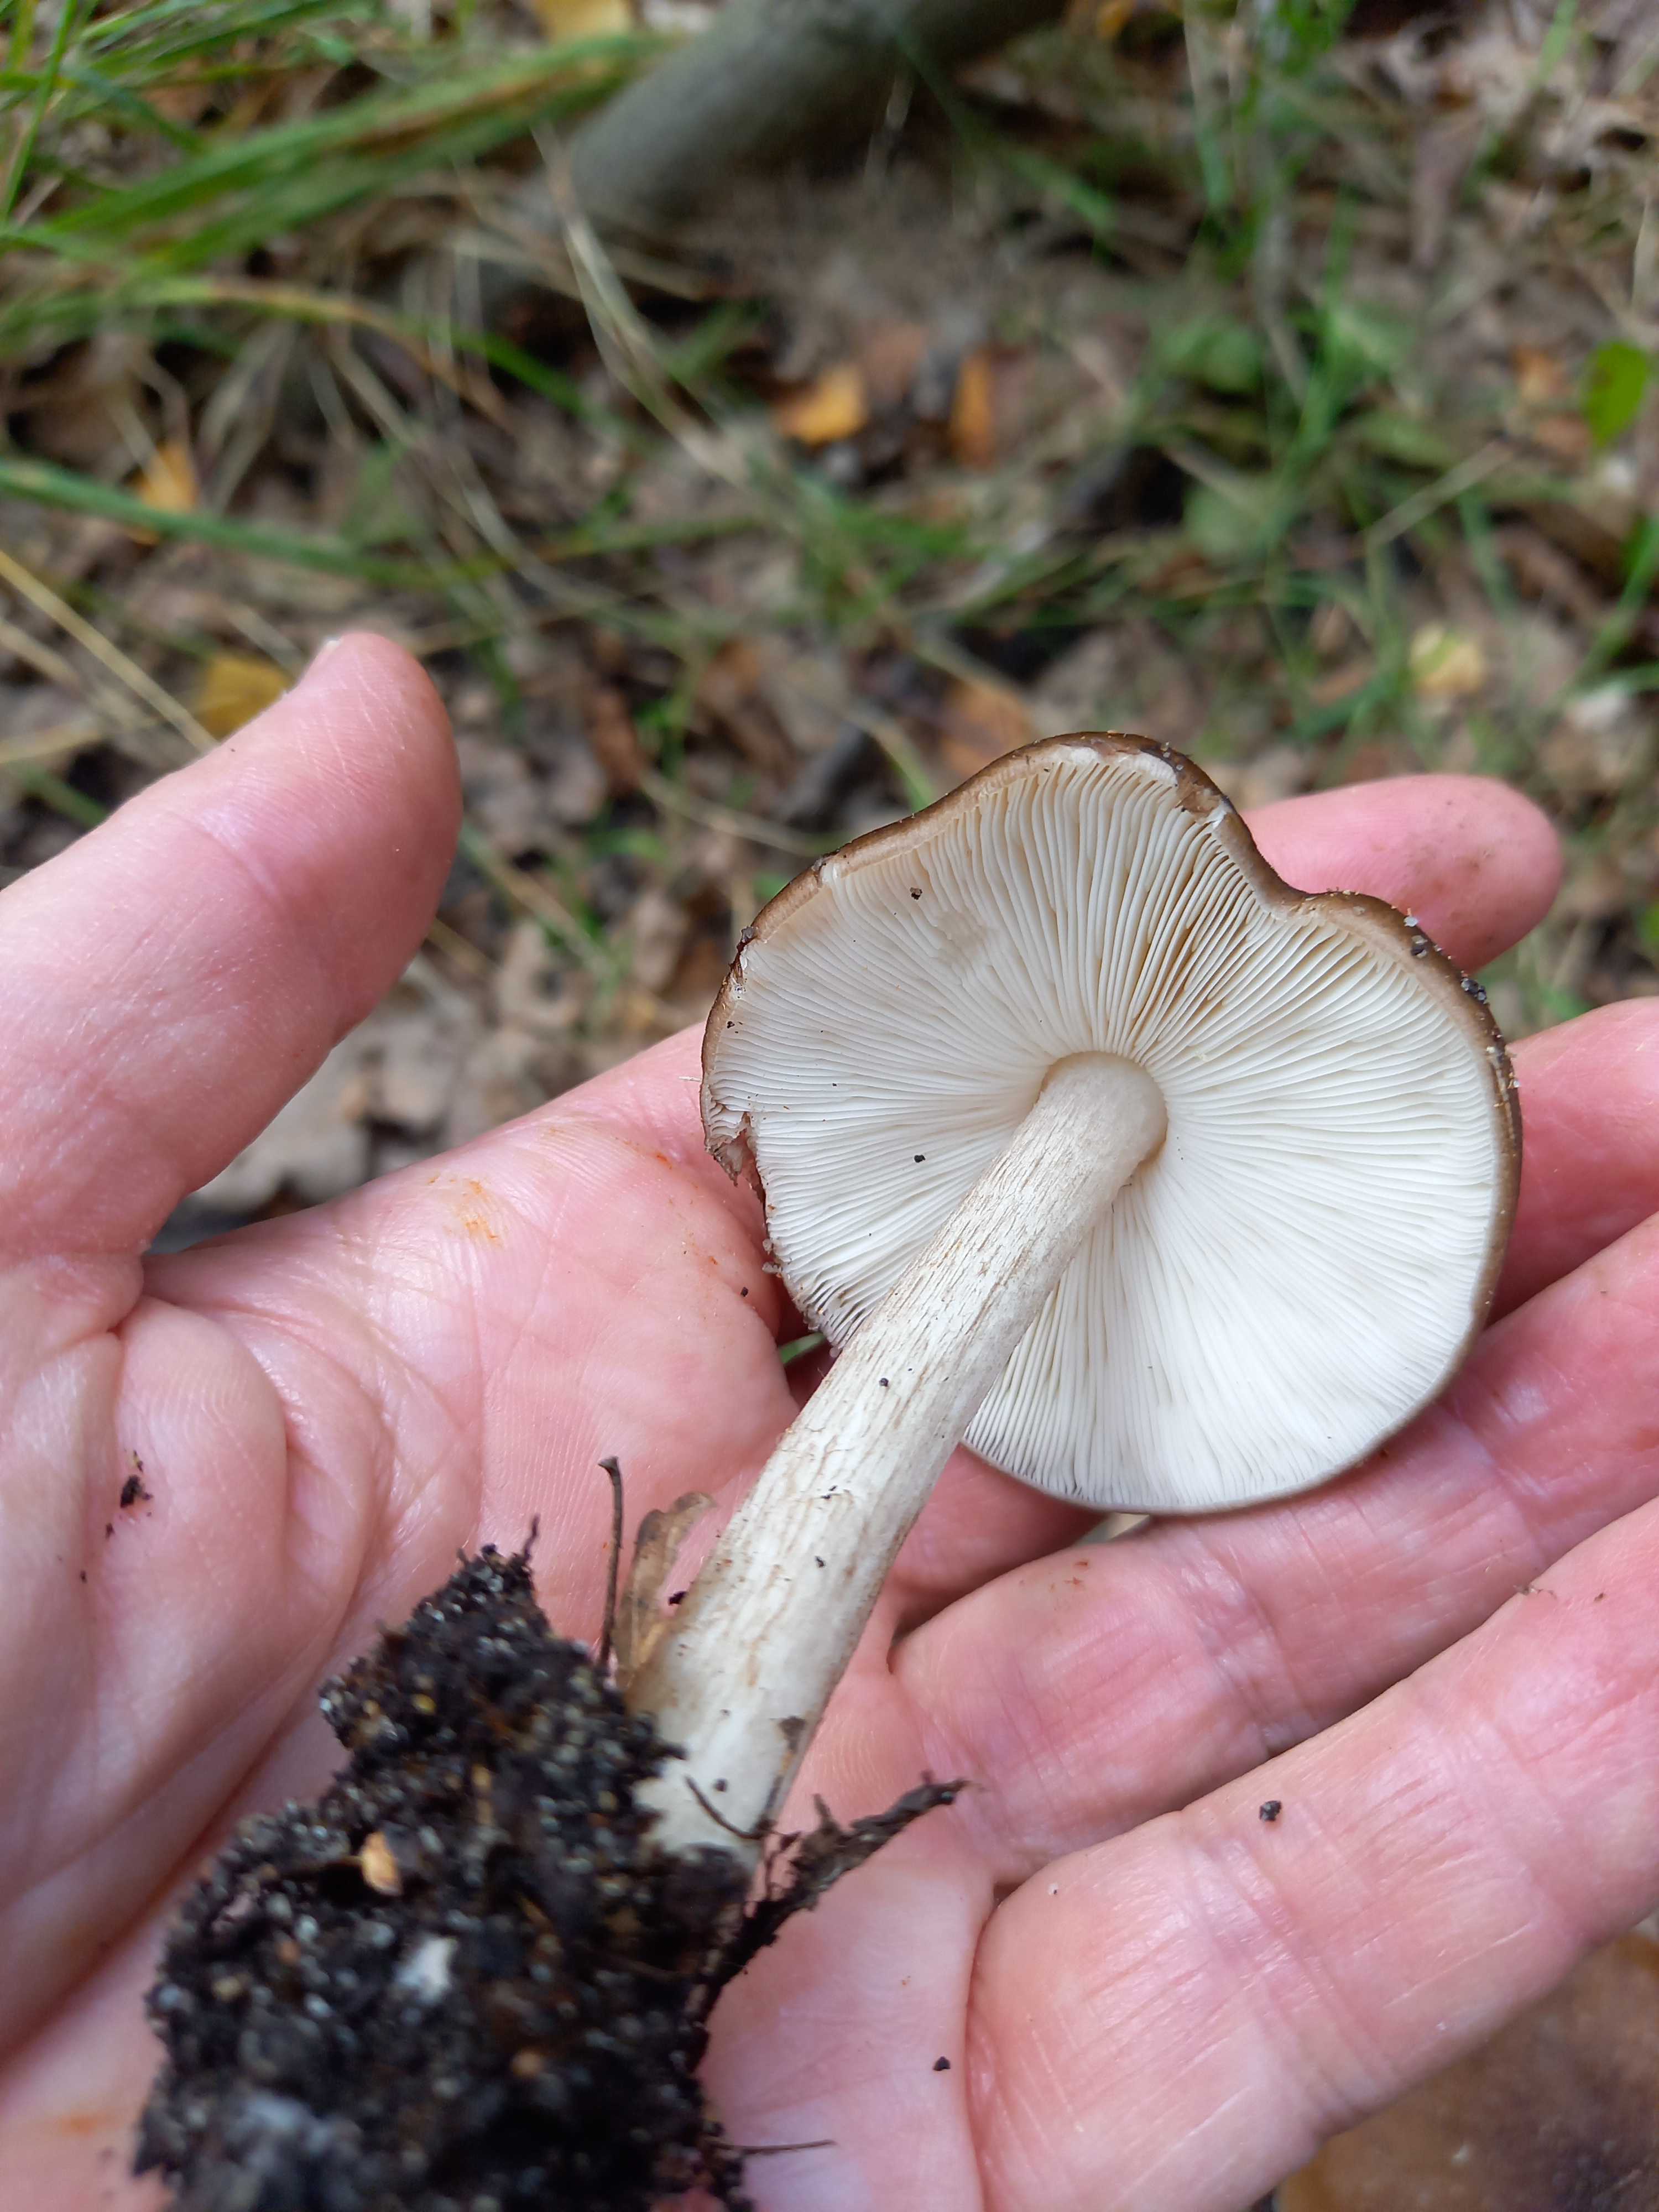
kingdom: Fungi
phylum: Basidiomycota
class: Agaricomycetes
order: Agaricales
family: Pluteaceae
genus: Pluteus
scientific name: Pluteus cervinus
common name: sodfarvet skærmhat
